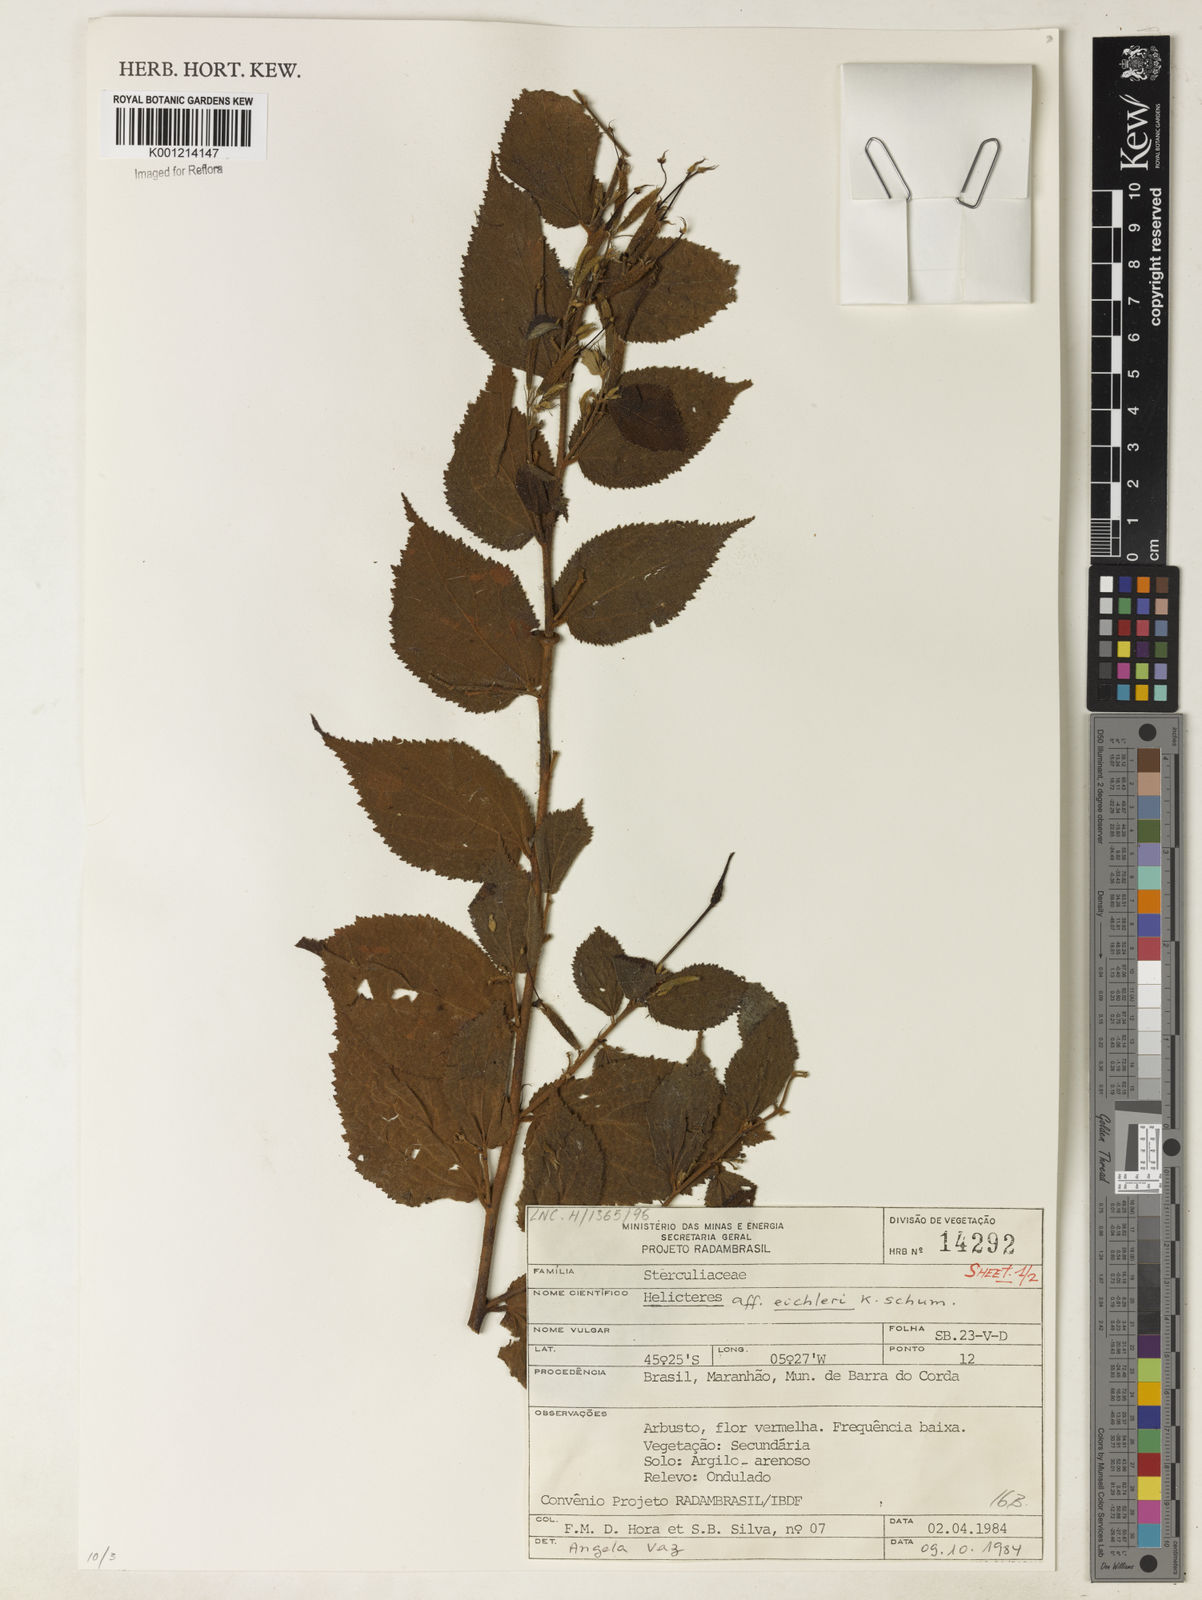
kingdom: Plantae
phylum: Tracheophyta
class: Magnoliopsida
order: Malvales
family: Malvaceae
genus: Helicteres
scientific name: Helicteres eichleri
